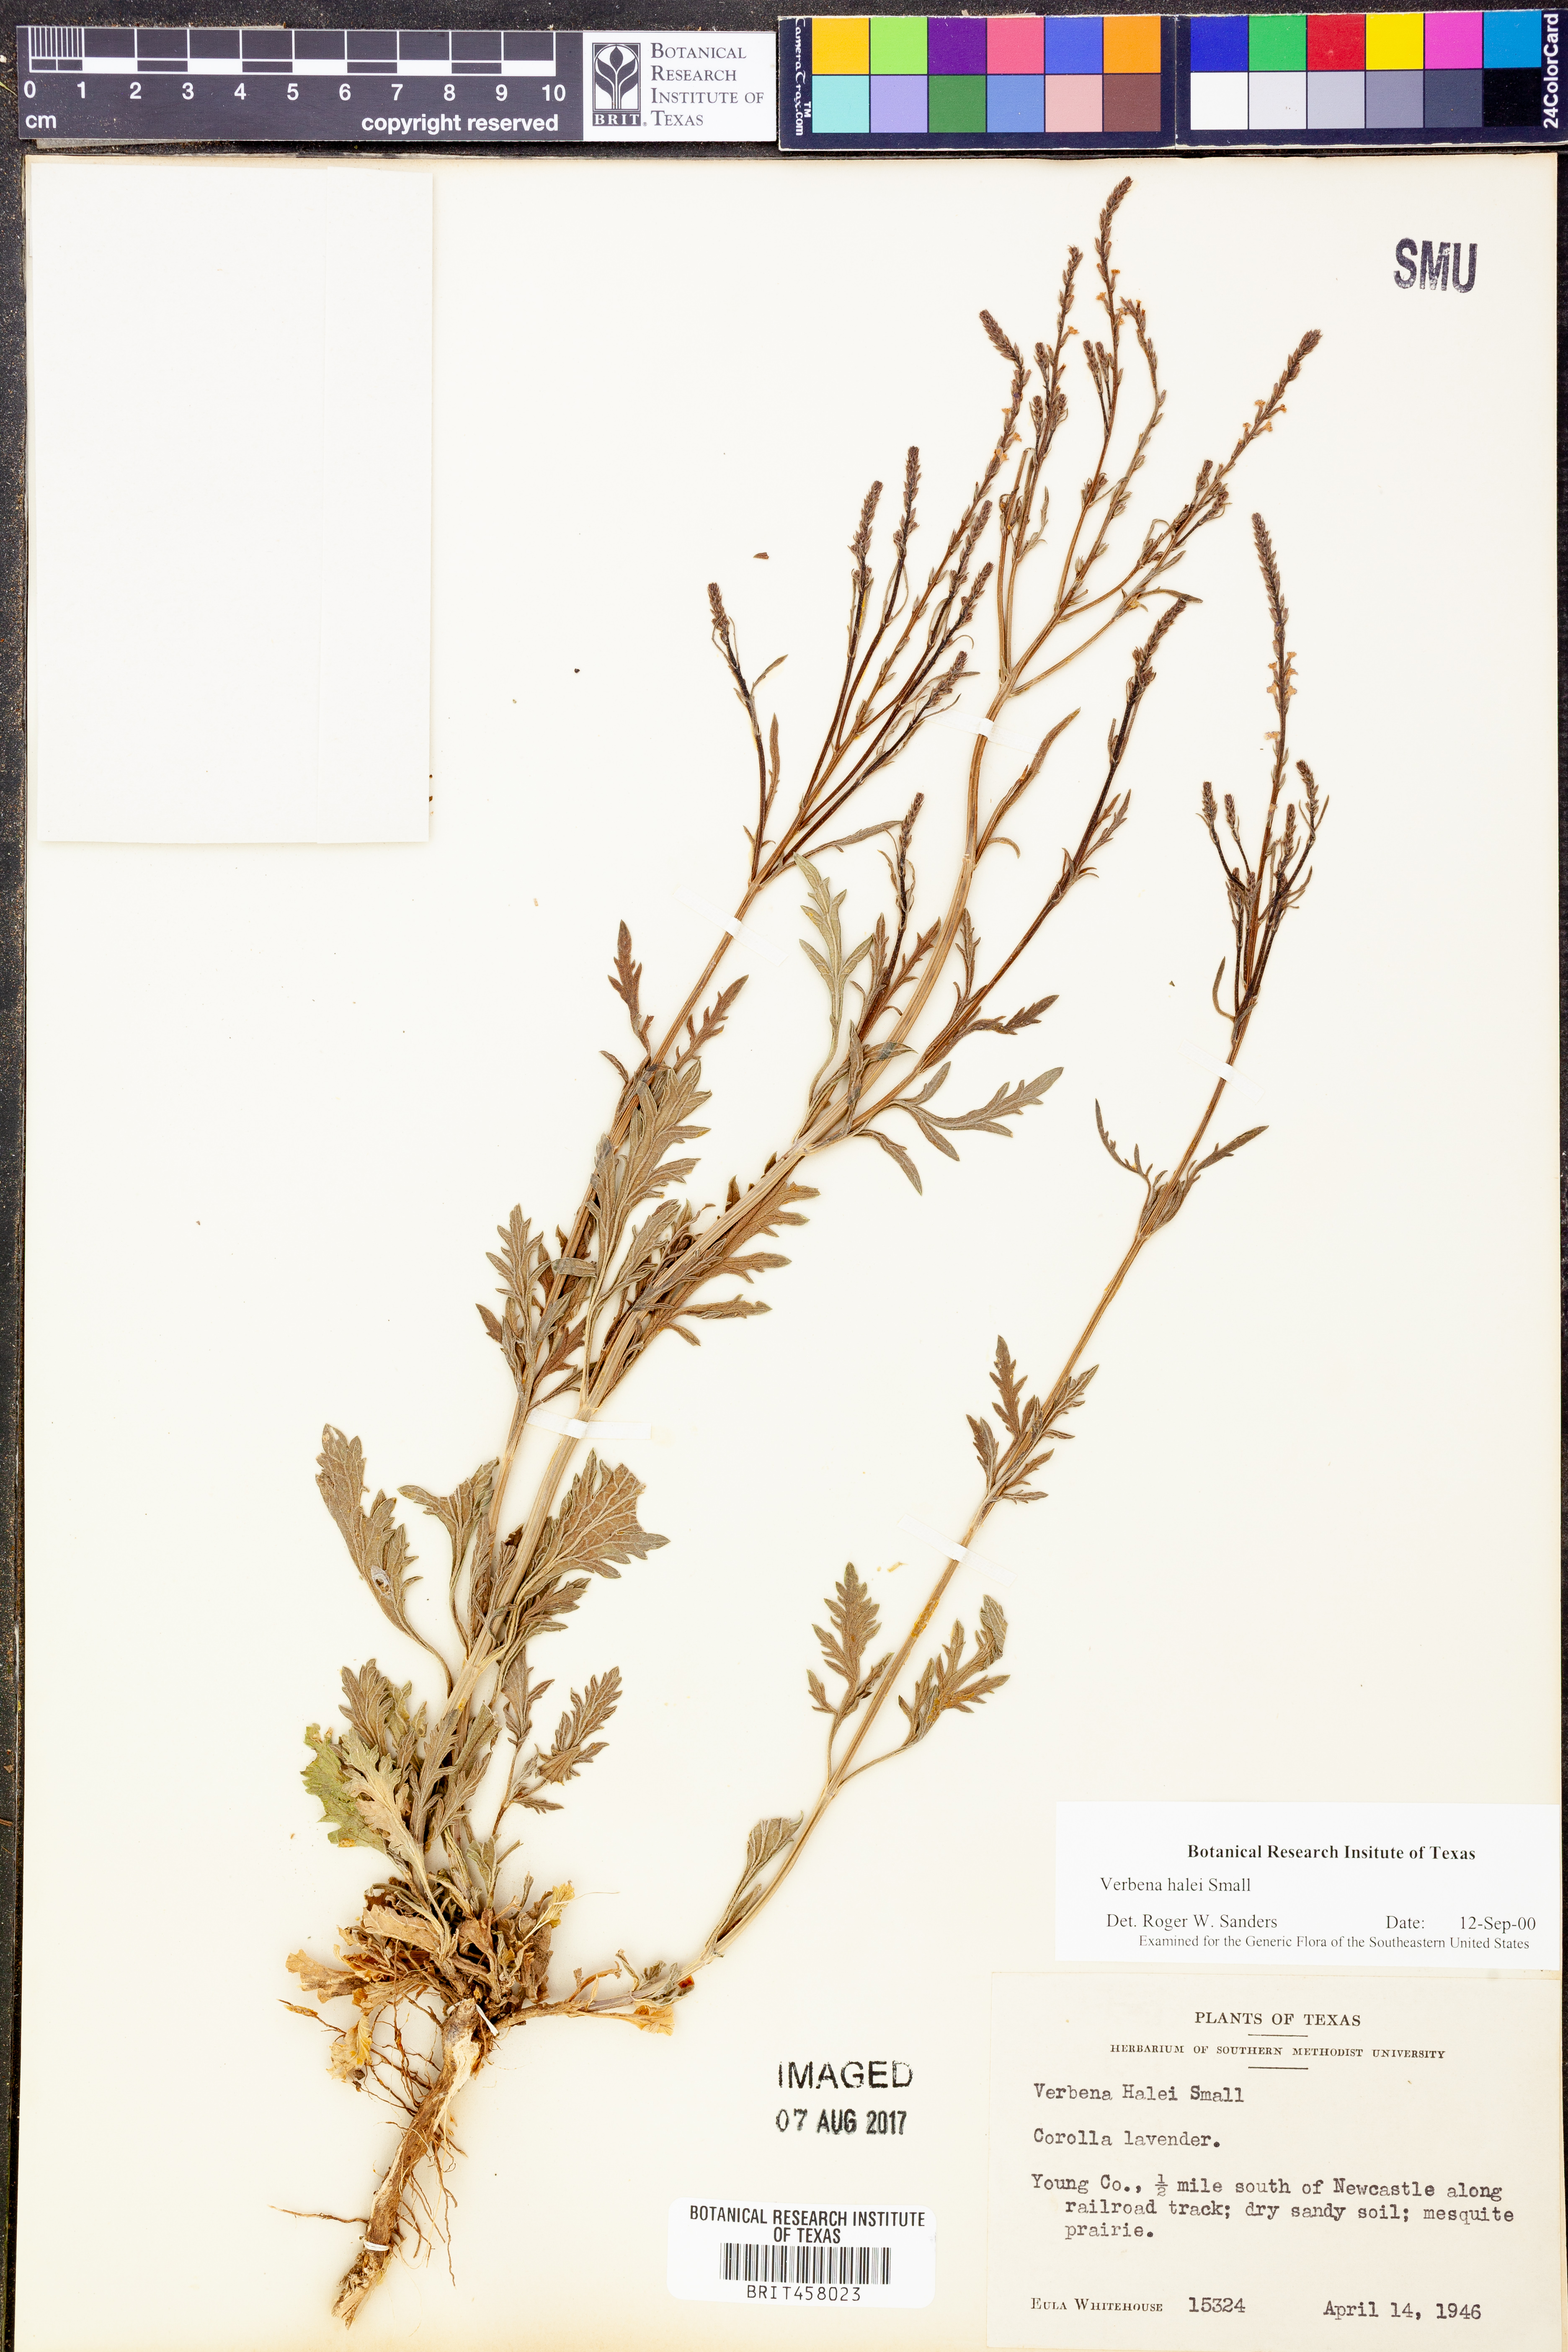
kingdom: Plantae
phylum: Tracheophyta
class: Magnoliopsida
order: Lamiales
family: Verbenaceae
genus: Verbena
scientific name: Verbena halei
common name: Texas vervain
